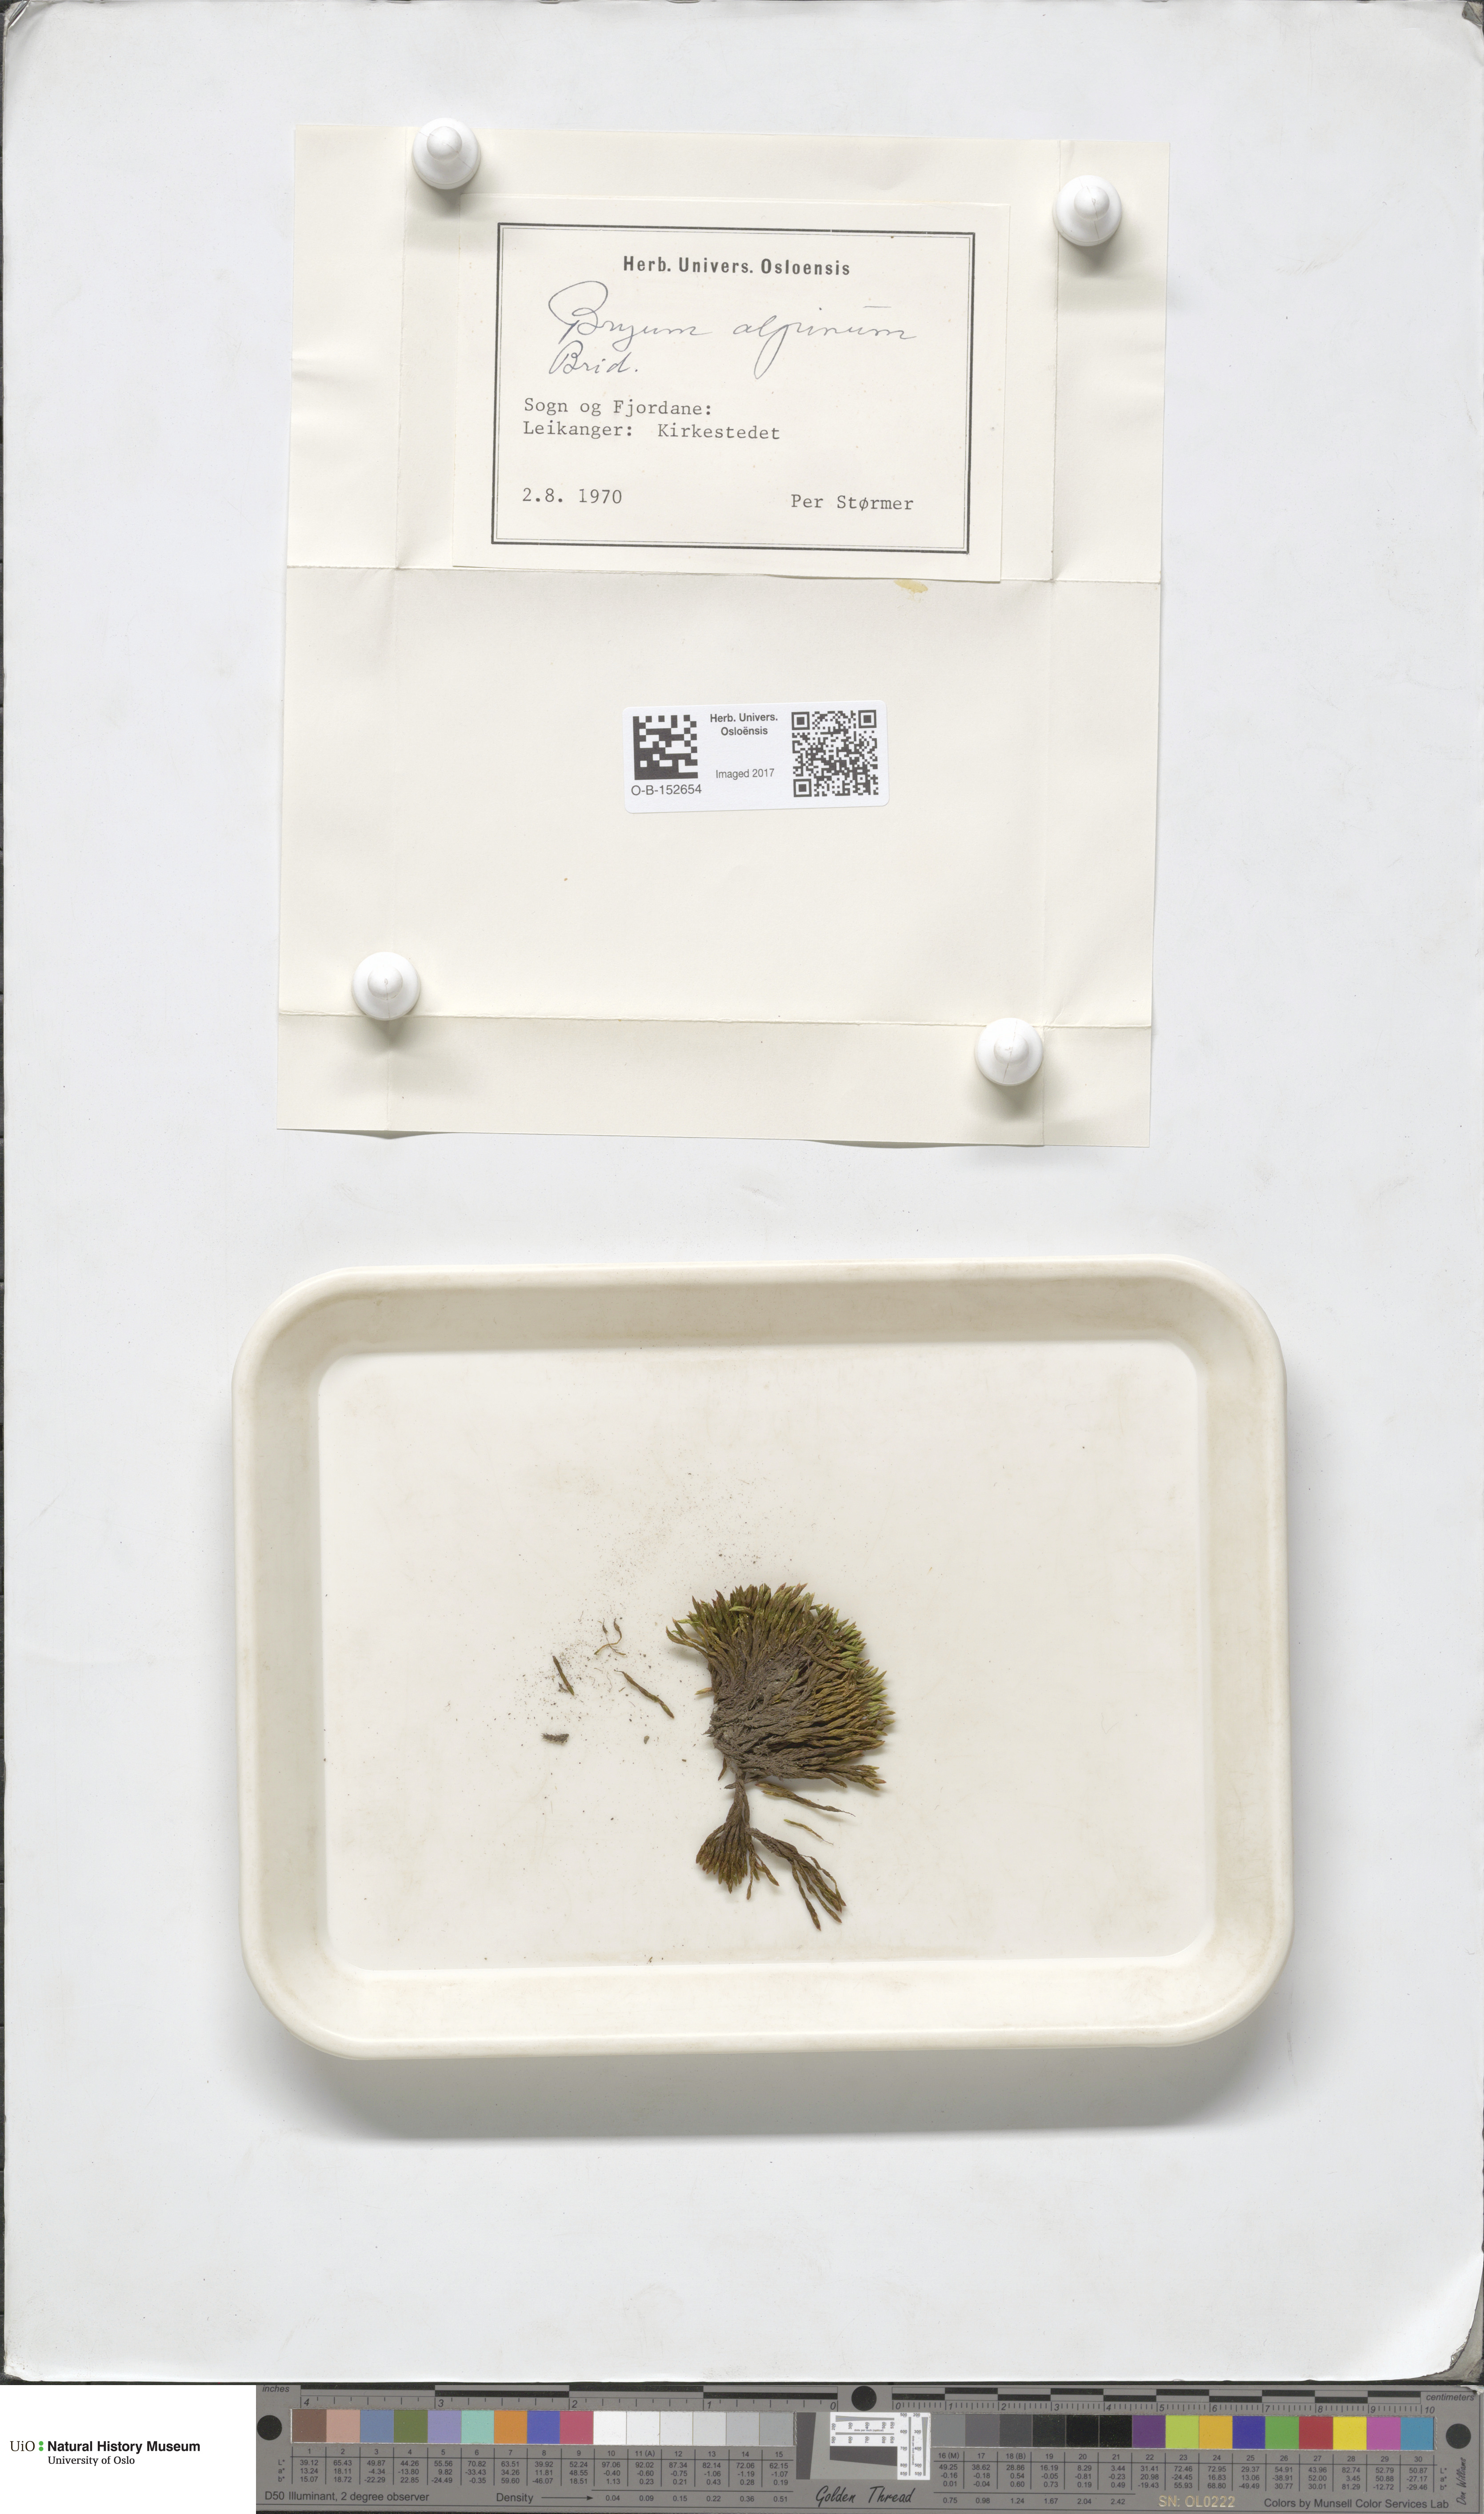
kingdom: Plantae
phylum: Bryophyta
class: Bryopsida
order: Bryales
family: Bryaceae
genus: Imbribryum
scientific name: Imbribryum alpinum
